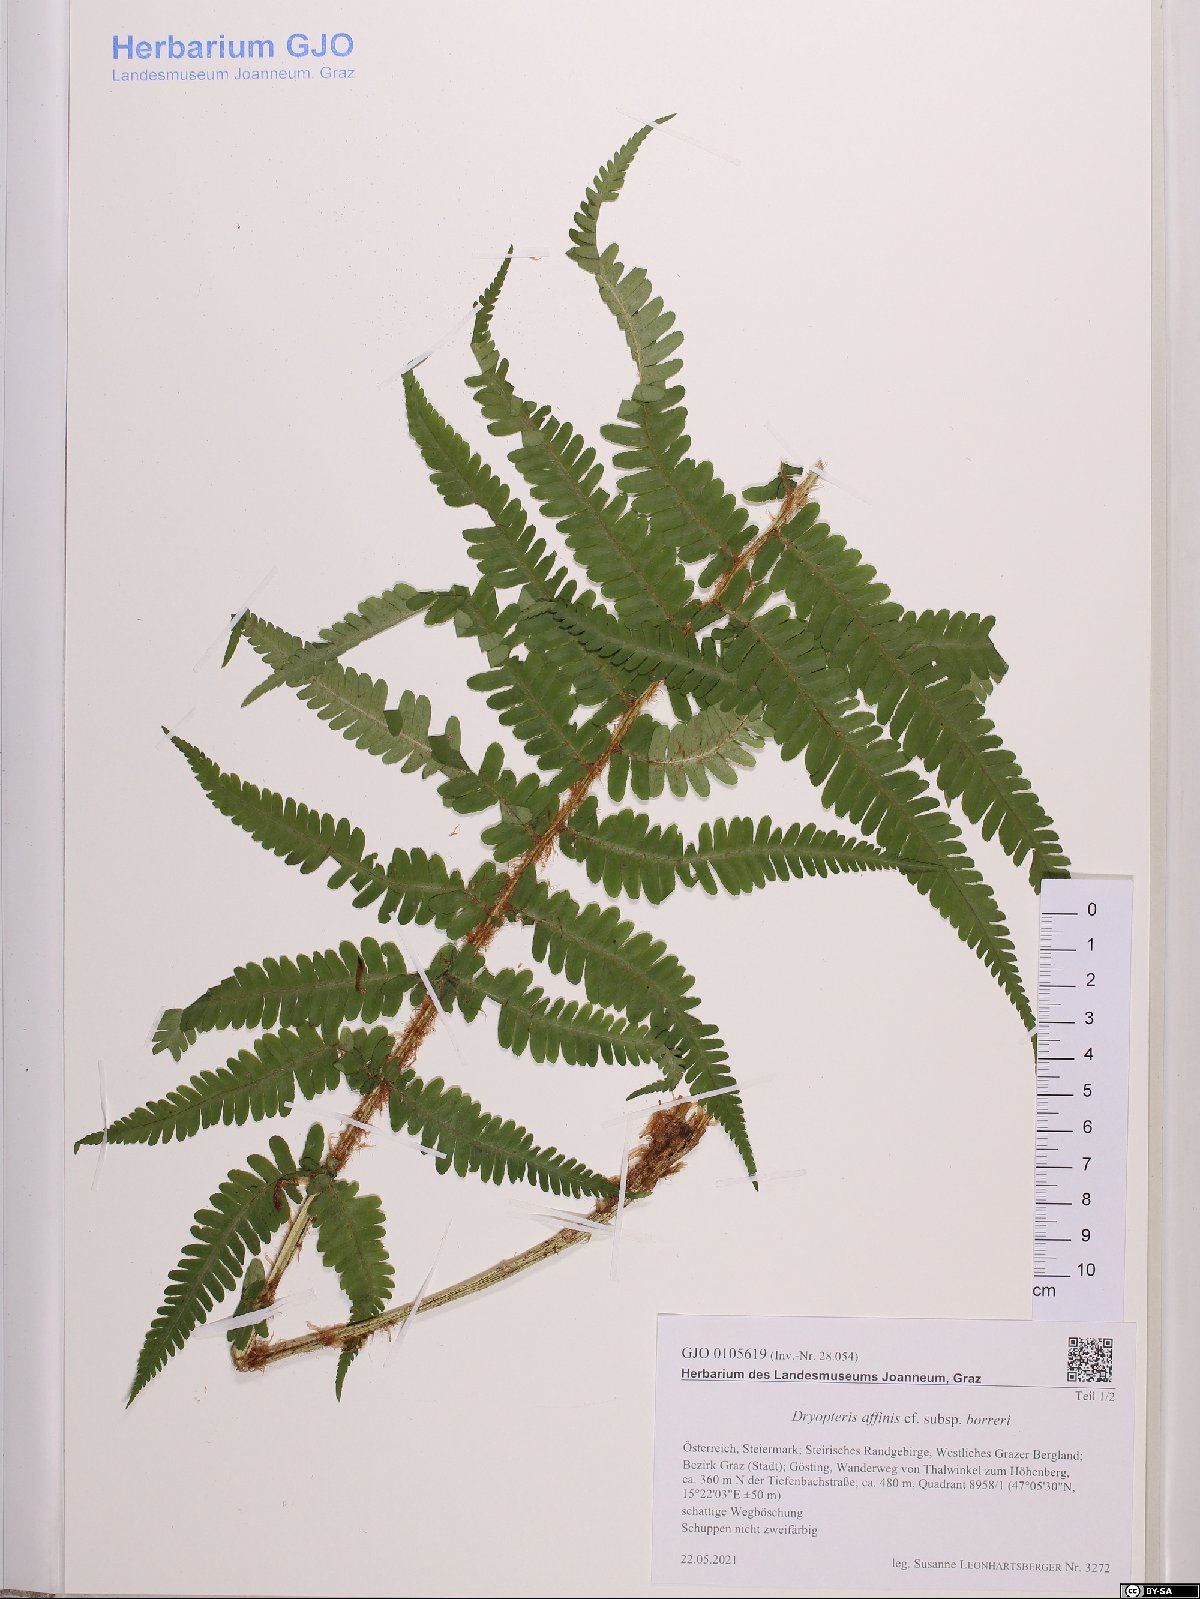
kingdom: Plantae
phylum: Tracheophyta
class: Polypodiopsida
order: Polypodiales
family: Dryopteridaceae
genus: Dryopteris
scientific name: Dryopteris borreri
